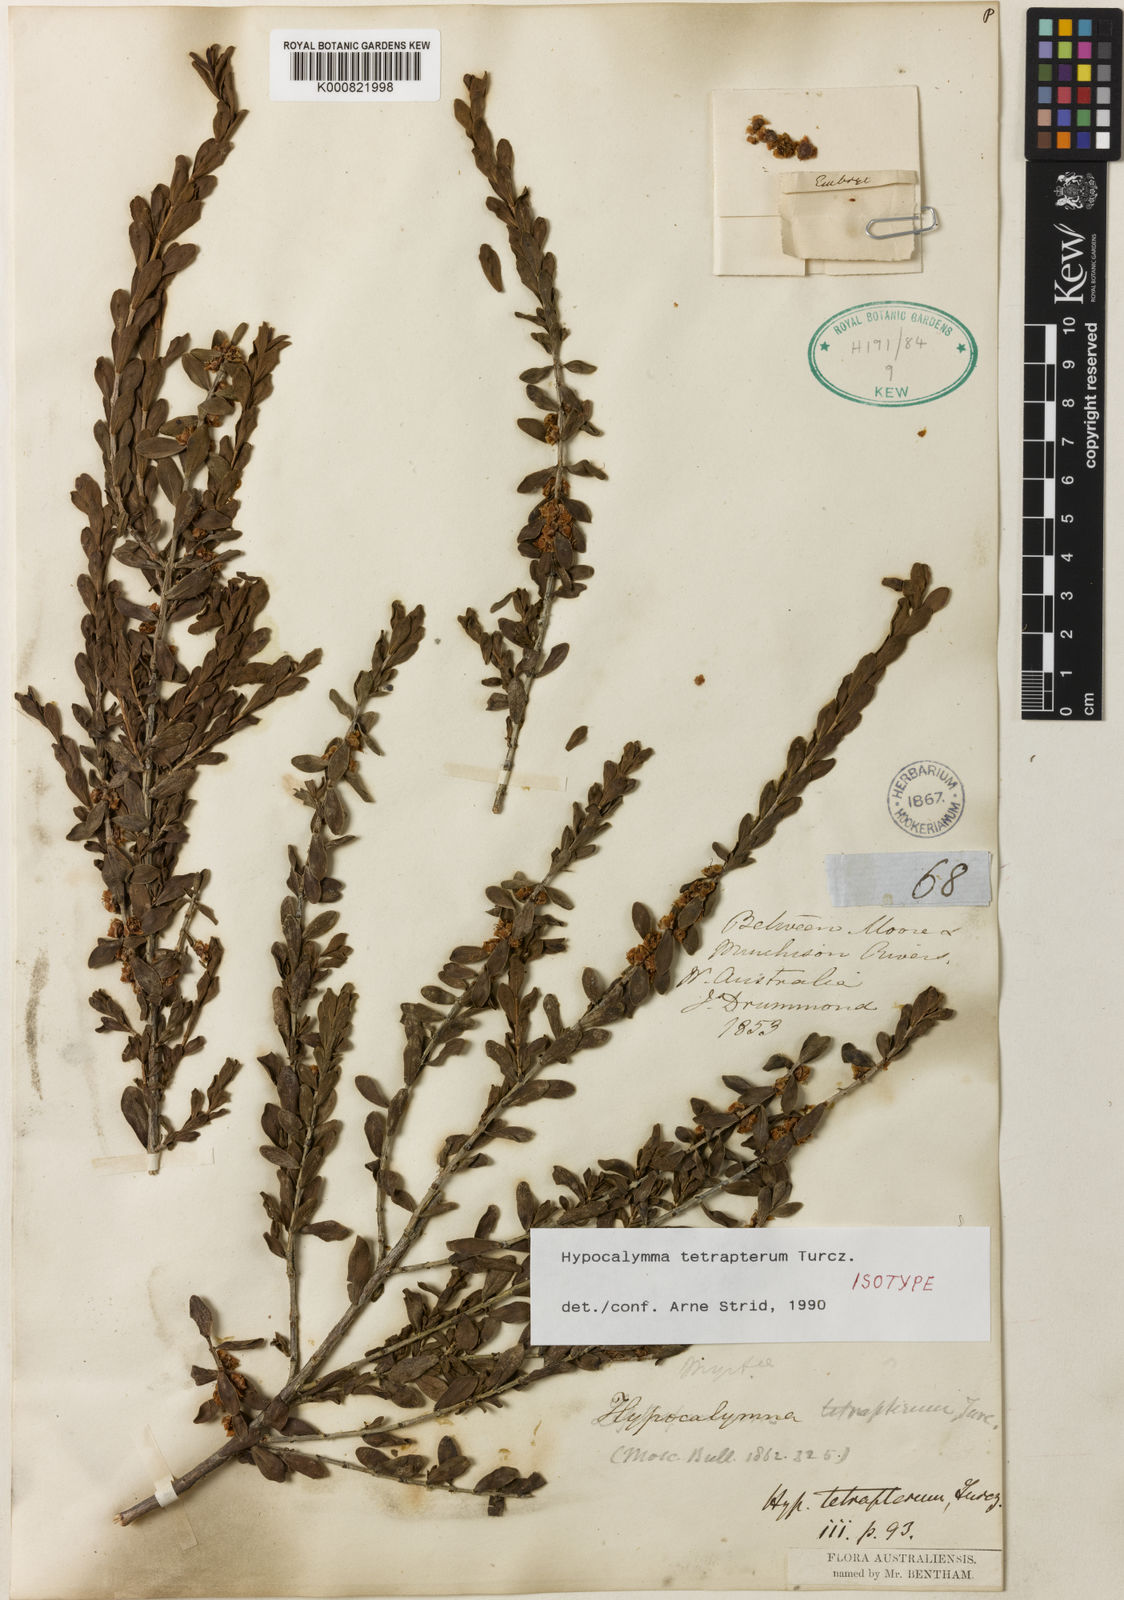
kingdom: Plantae
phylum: Tracheophyta
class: Magnoliopsida
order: Myrtales
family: Myrtaceae
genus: Hypocalymma
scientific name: Hypocalymma tetrapterum
